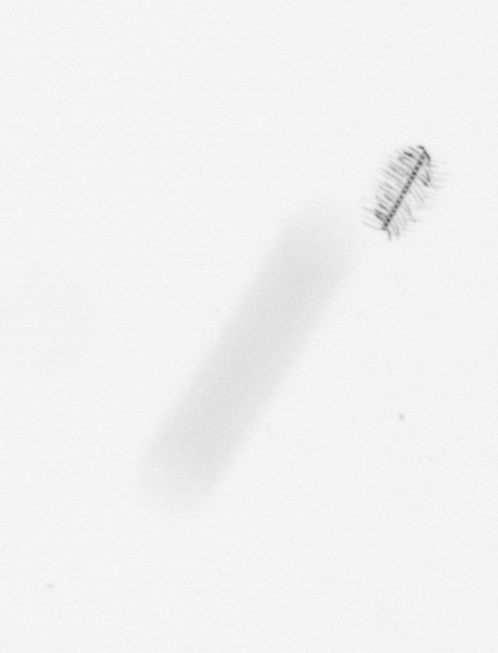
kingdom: Chromista
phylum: Ochrophyta
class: Bacillariophyceae
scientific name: Bacillariophyceae
